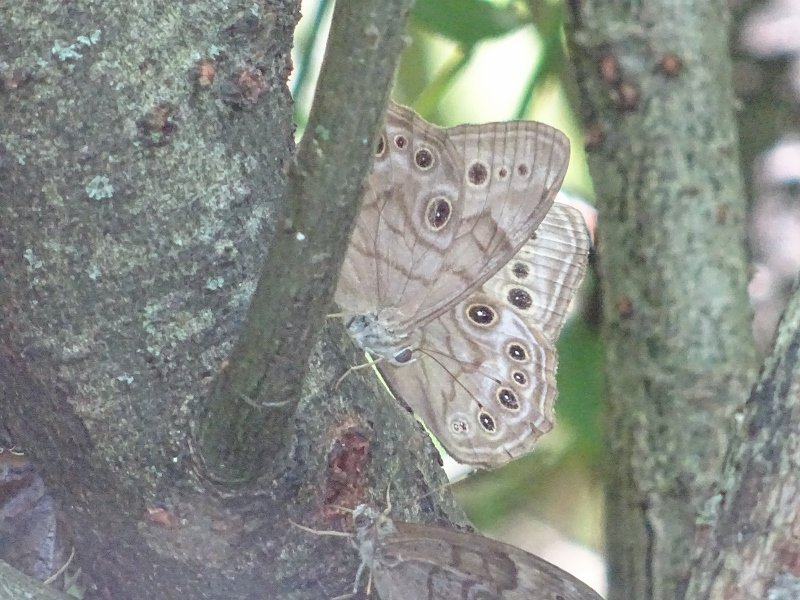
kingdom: Animalia
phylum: Arthropoda
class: Insecta
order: Lepidoptera
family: Nymphalidae
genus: Lethe
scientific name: Lethe anthedon
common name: Northern Pearly-Eye
